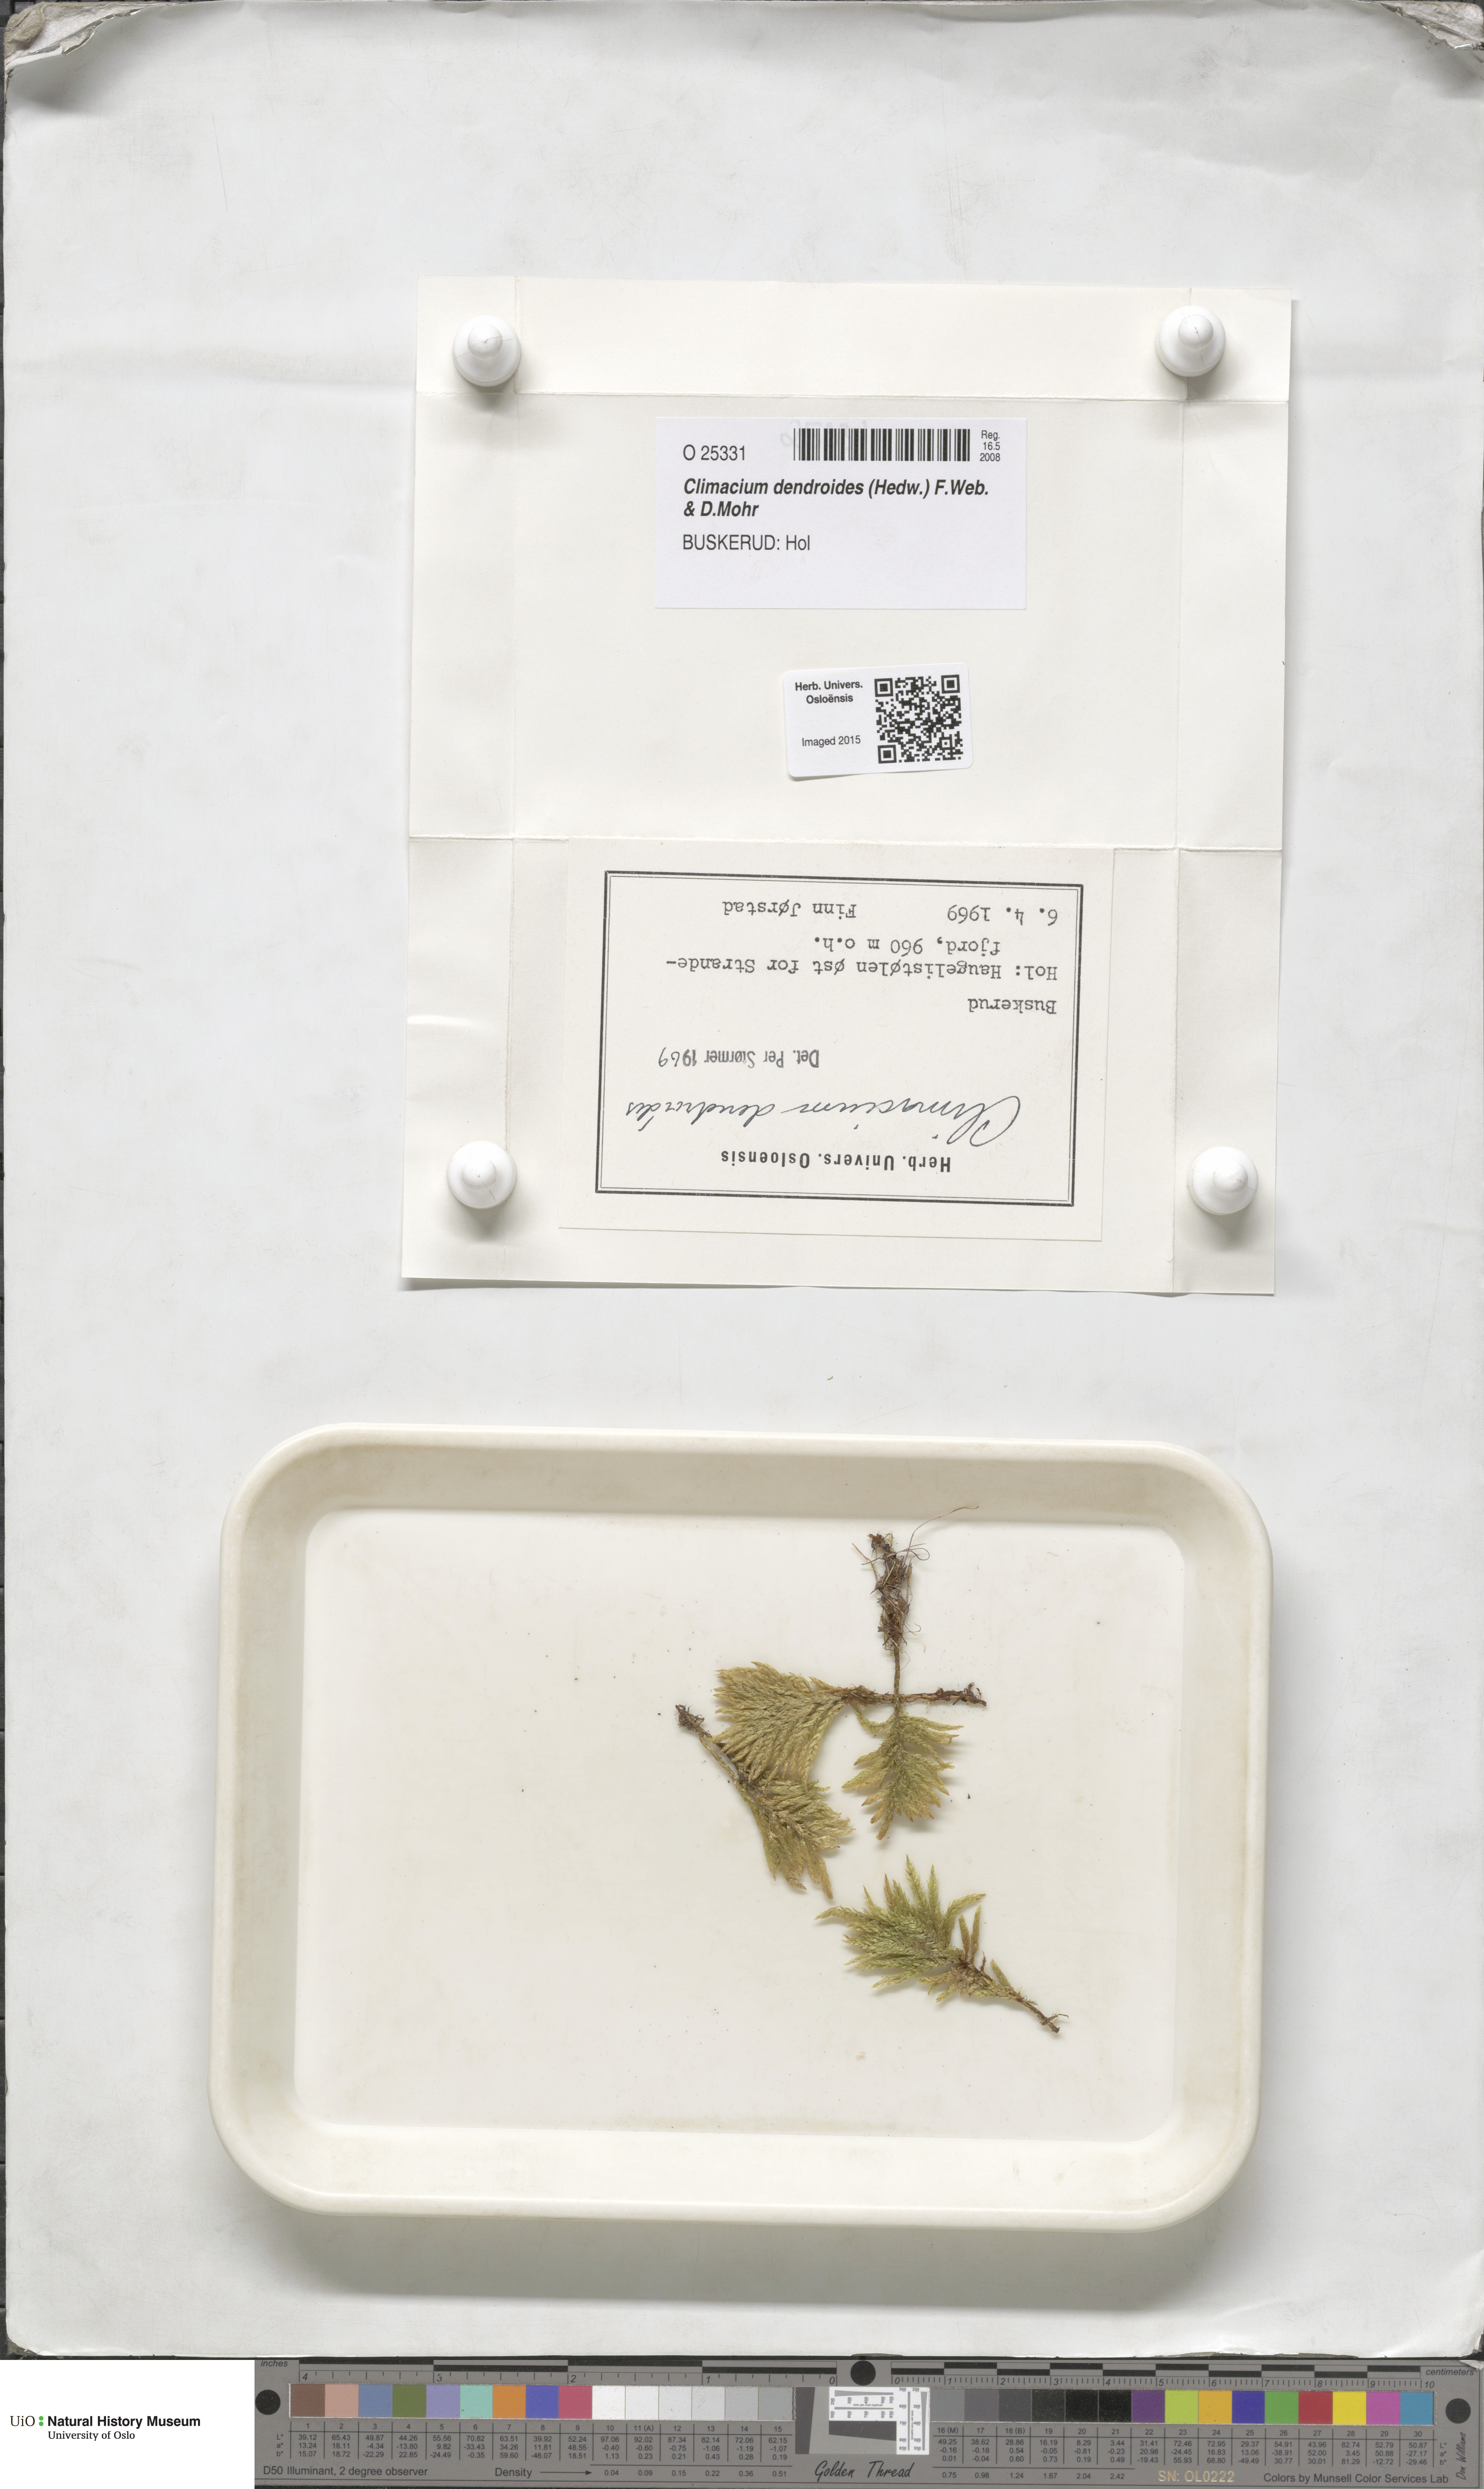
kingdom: Plantae
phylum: Bryophyta
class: Bryopsida
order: Hypnales
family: Climaciaceae
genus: Climacium
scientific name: Climacium dendroides
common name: Northern tree moss
